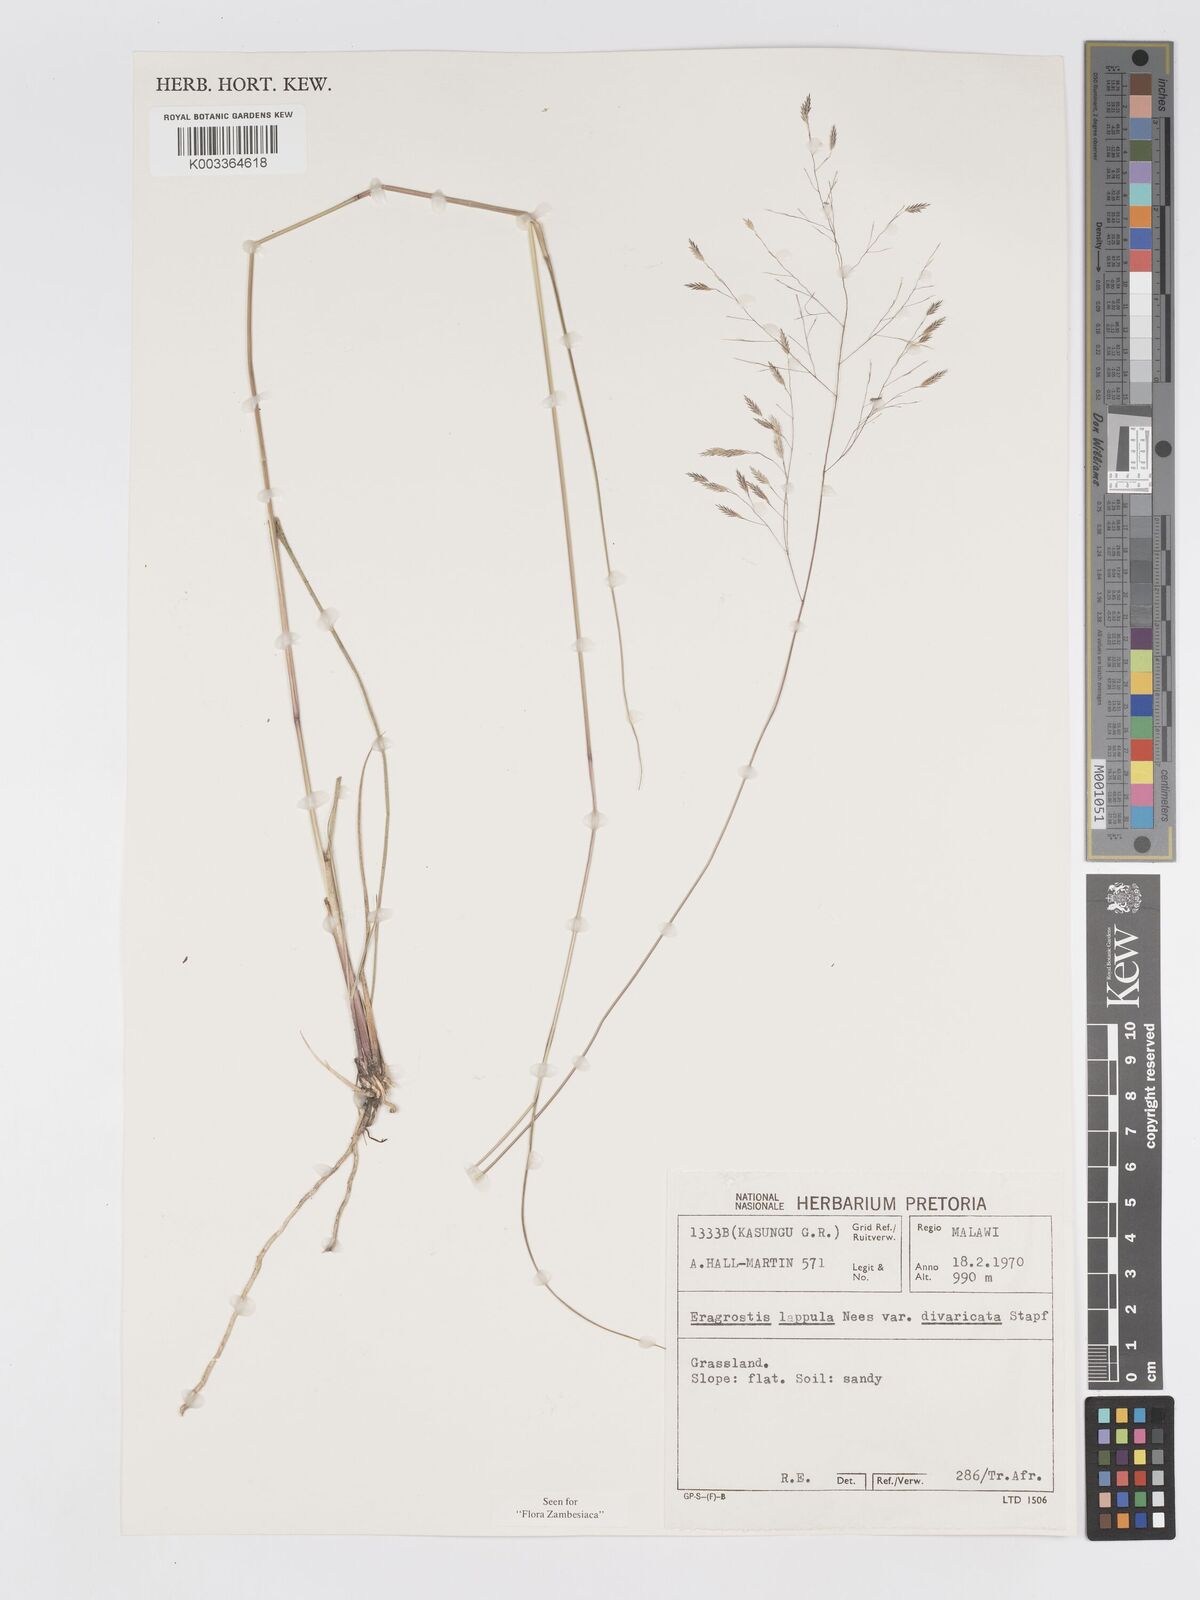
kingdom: Plantae
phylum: Tracheophyta
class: Liliopsida
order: Poales
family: Poaceae
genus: Eragrostis
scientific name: Eragrostis lappula
